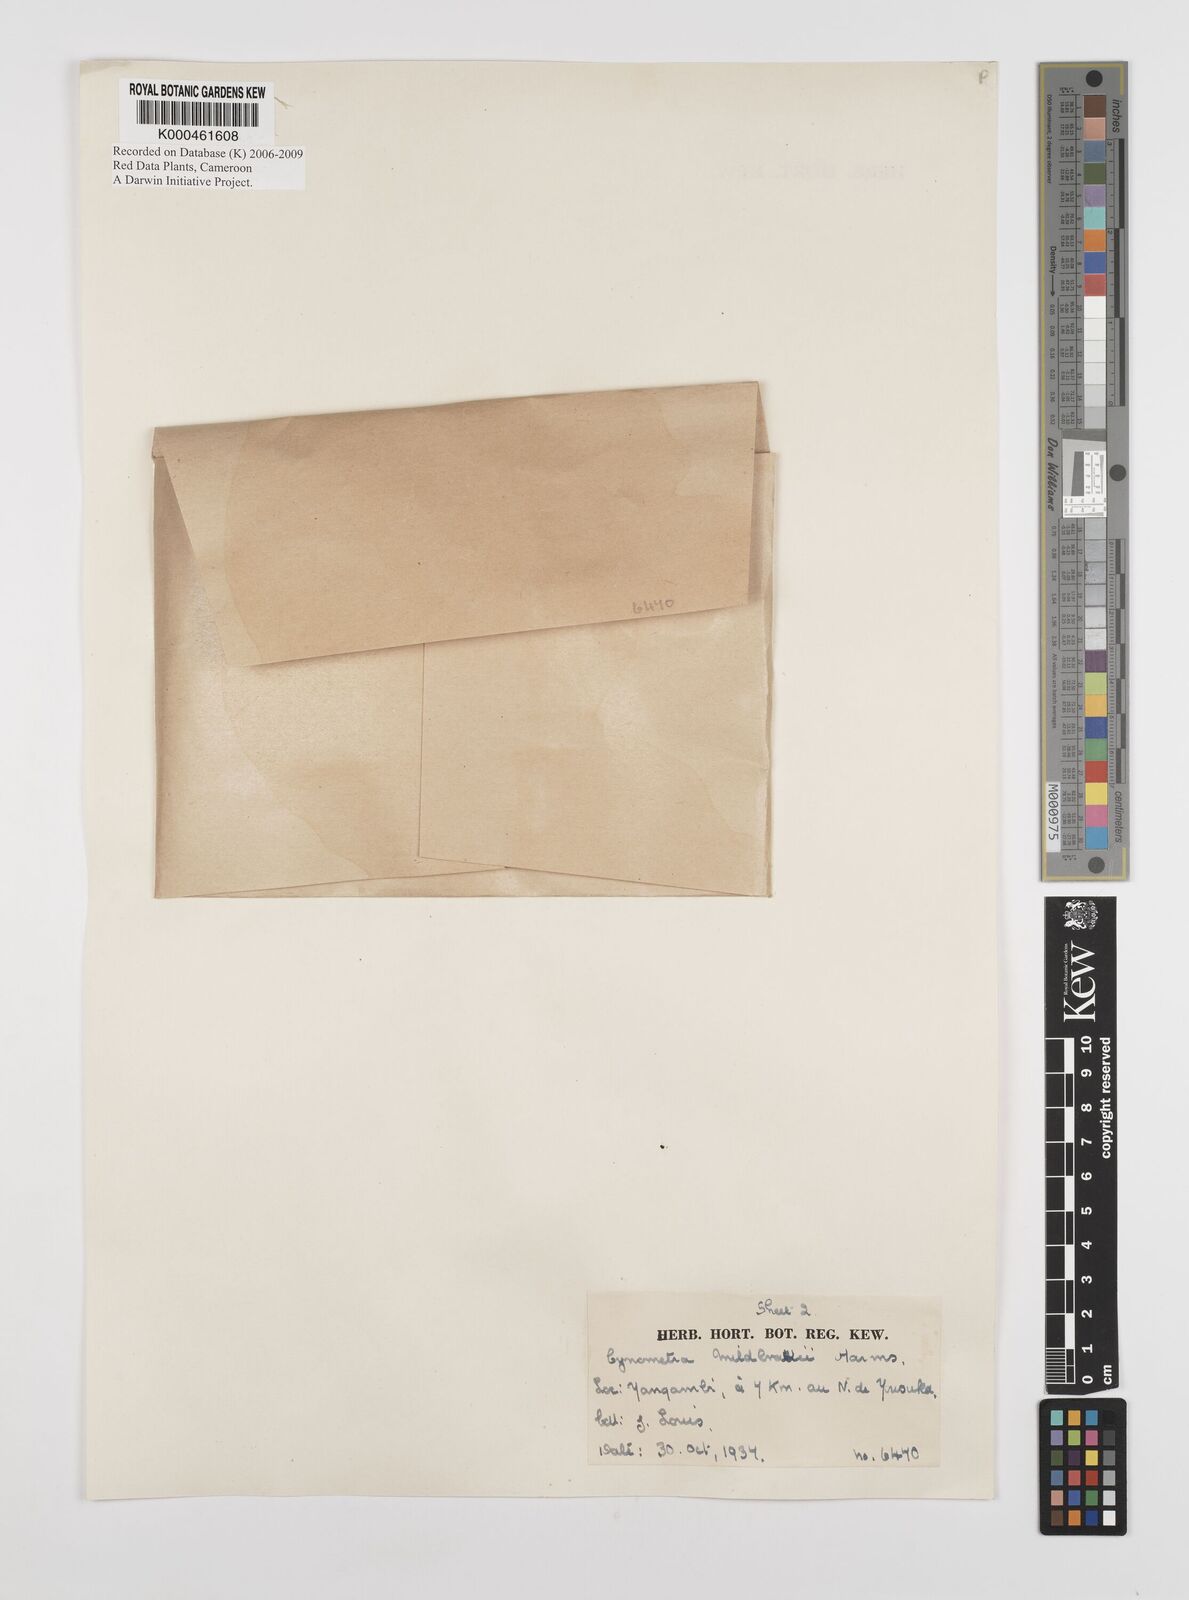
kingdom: Plantae
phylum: Tracheophyta
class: Magnoliopsida
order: Fabales
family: Fabaceae
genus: Gilletiodendron
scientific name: Gilletiodendron mildbraedii
